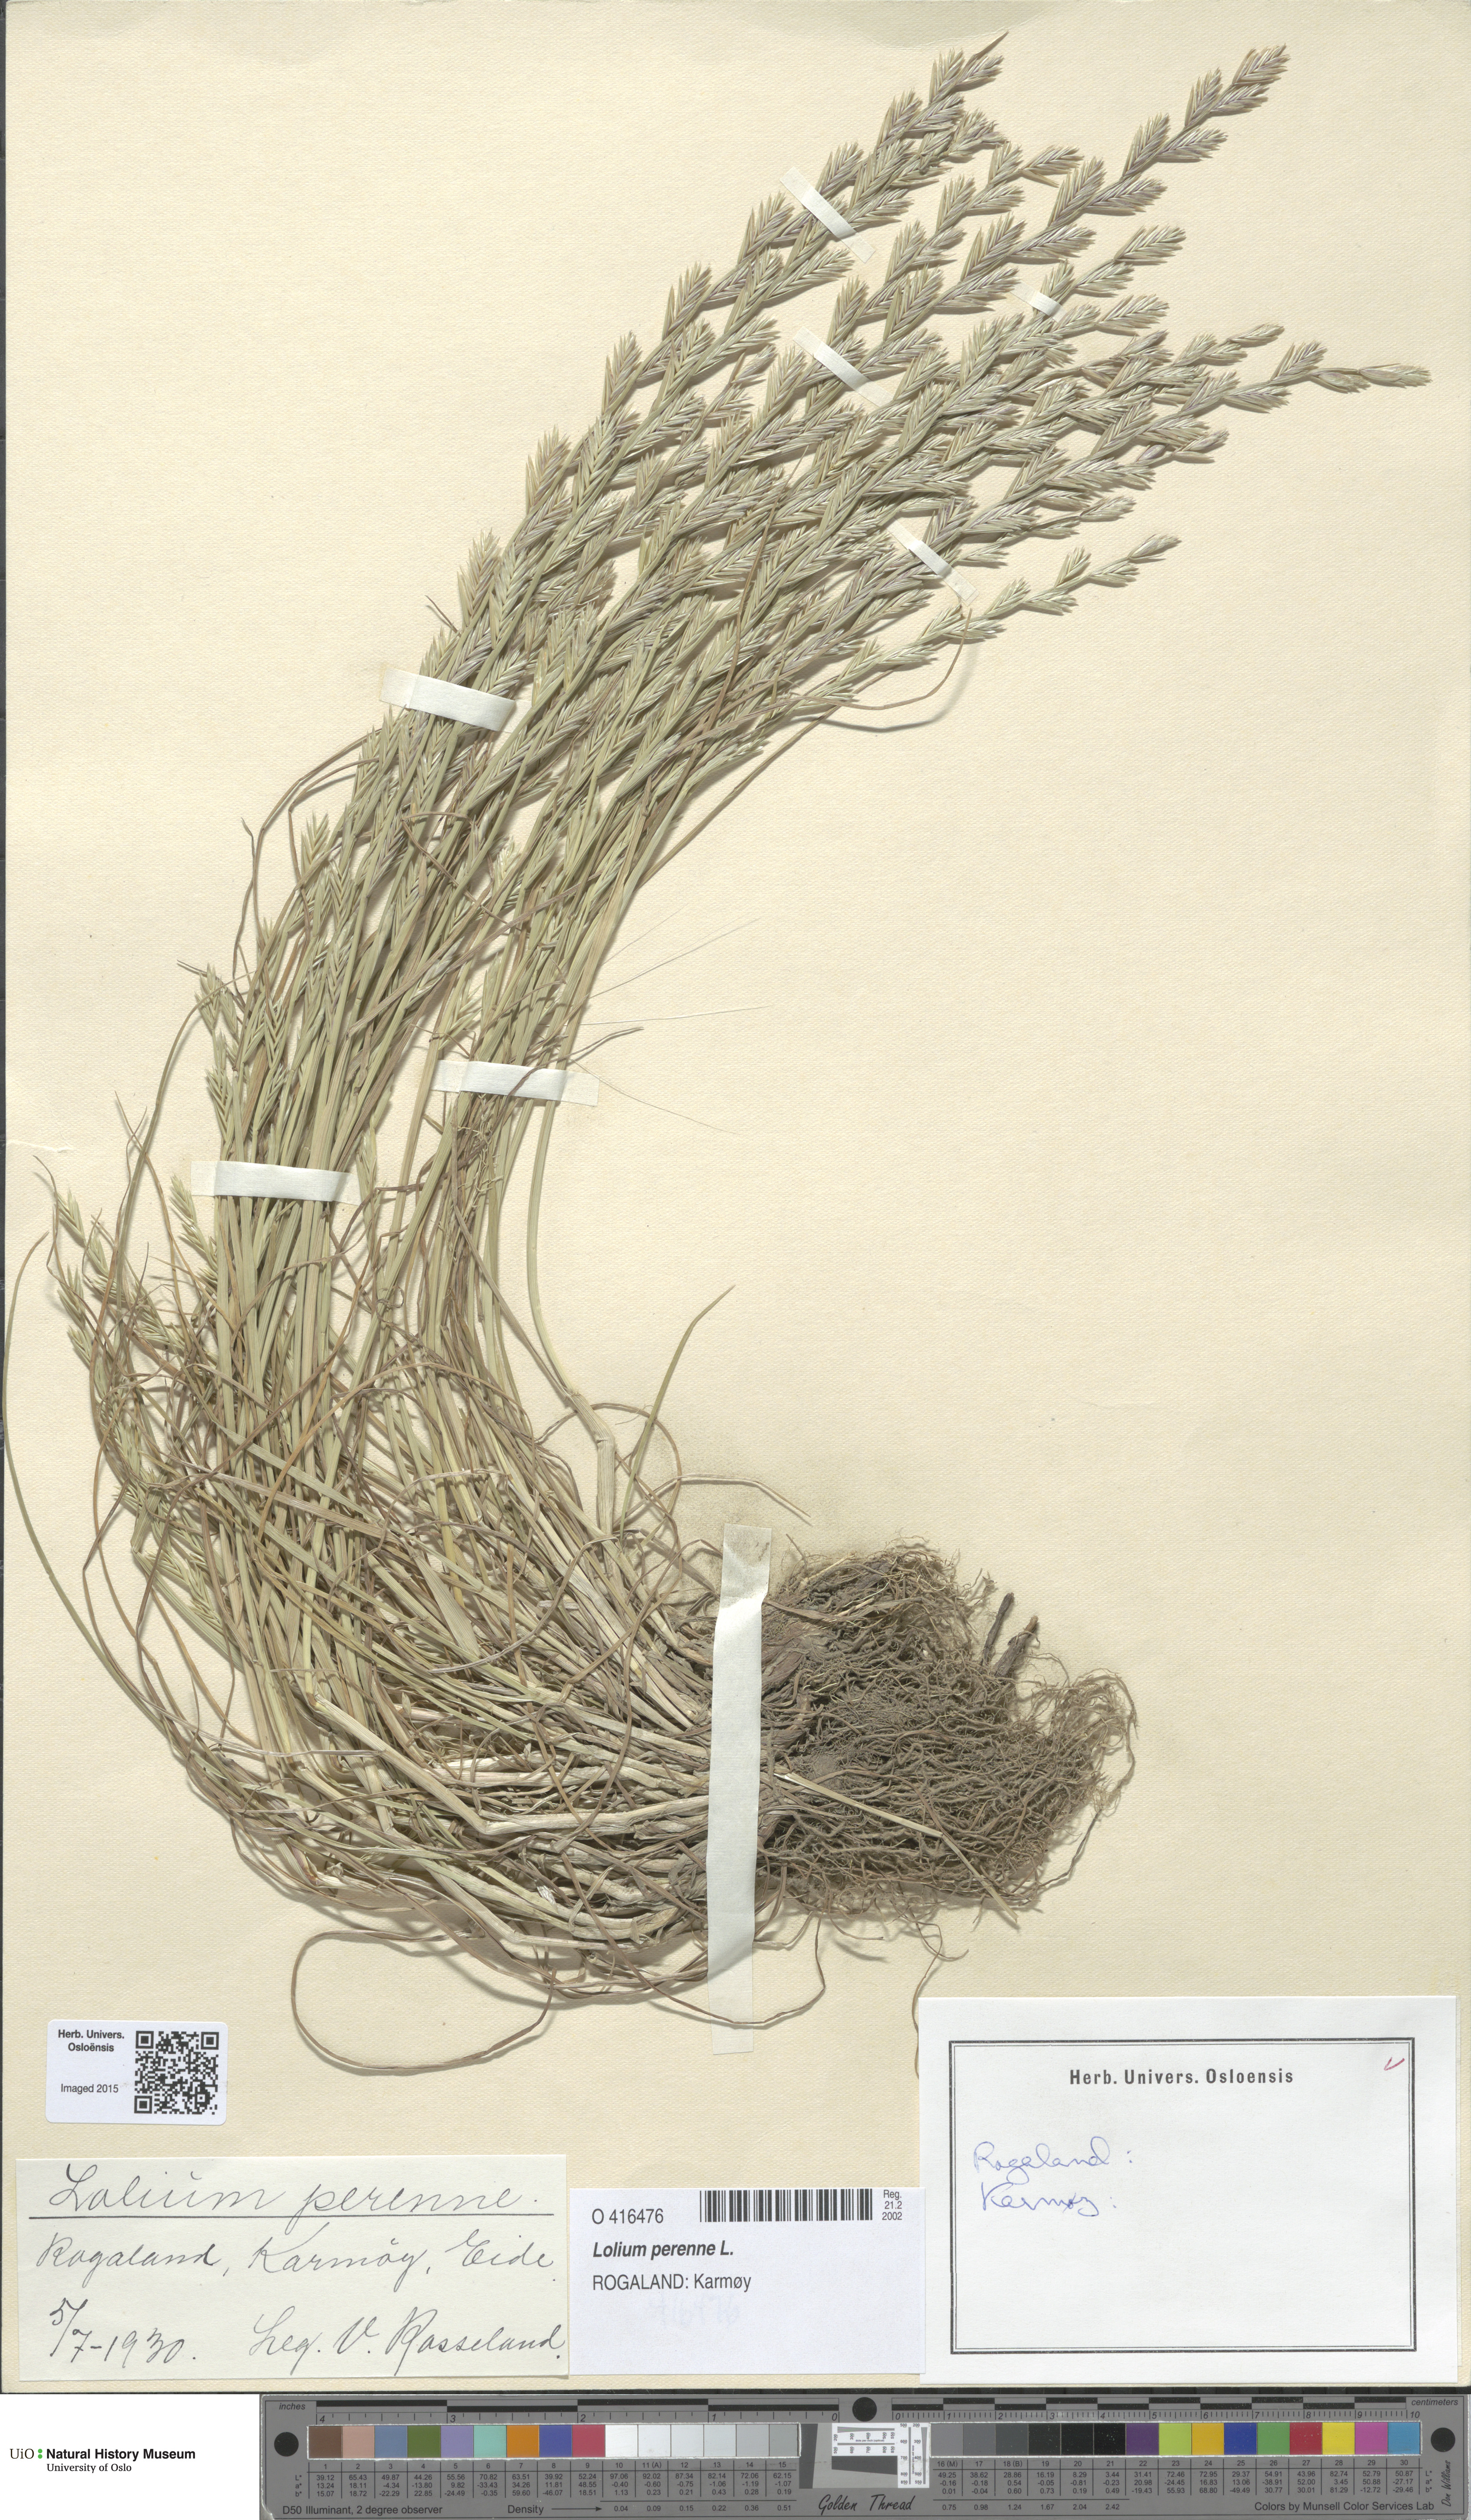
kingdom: Plantae
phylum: Tracheophyta
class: Liliopsida
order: Poales
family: Poaceae
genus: Lolium
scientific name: Lolium perenne
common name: Perennial ryegrass
